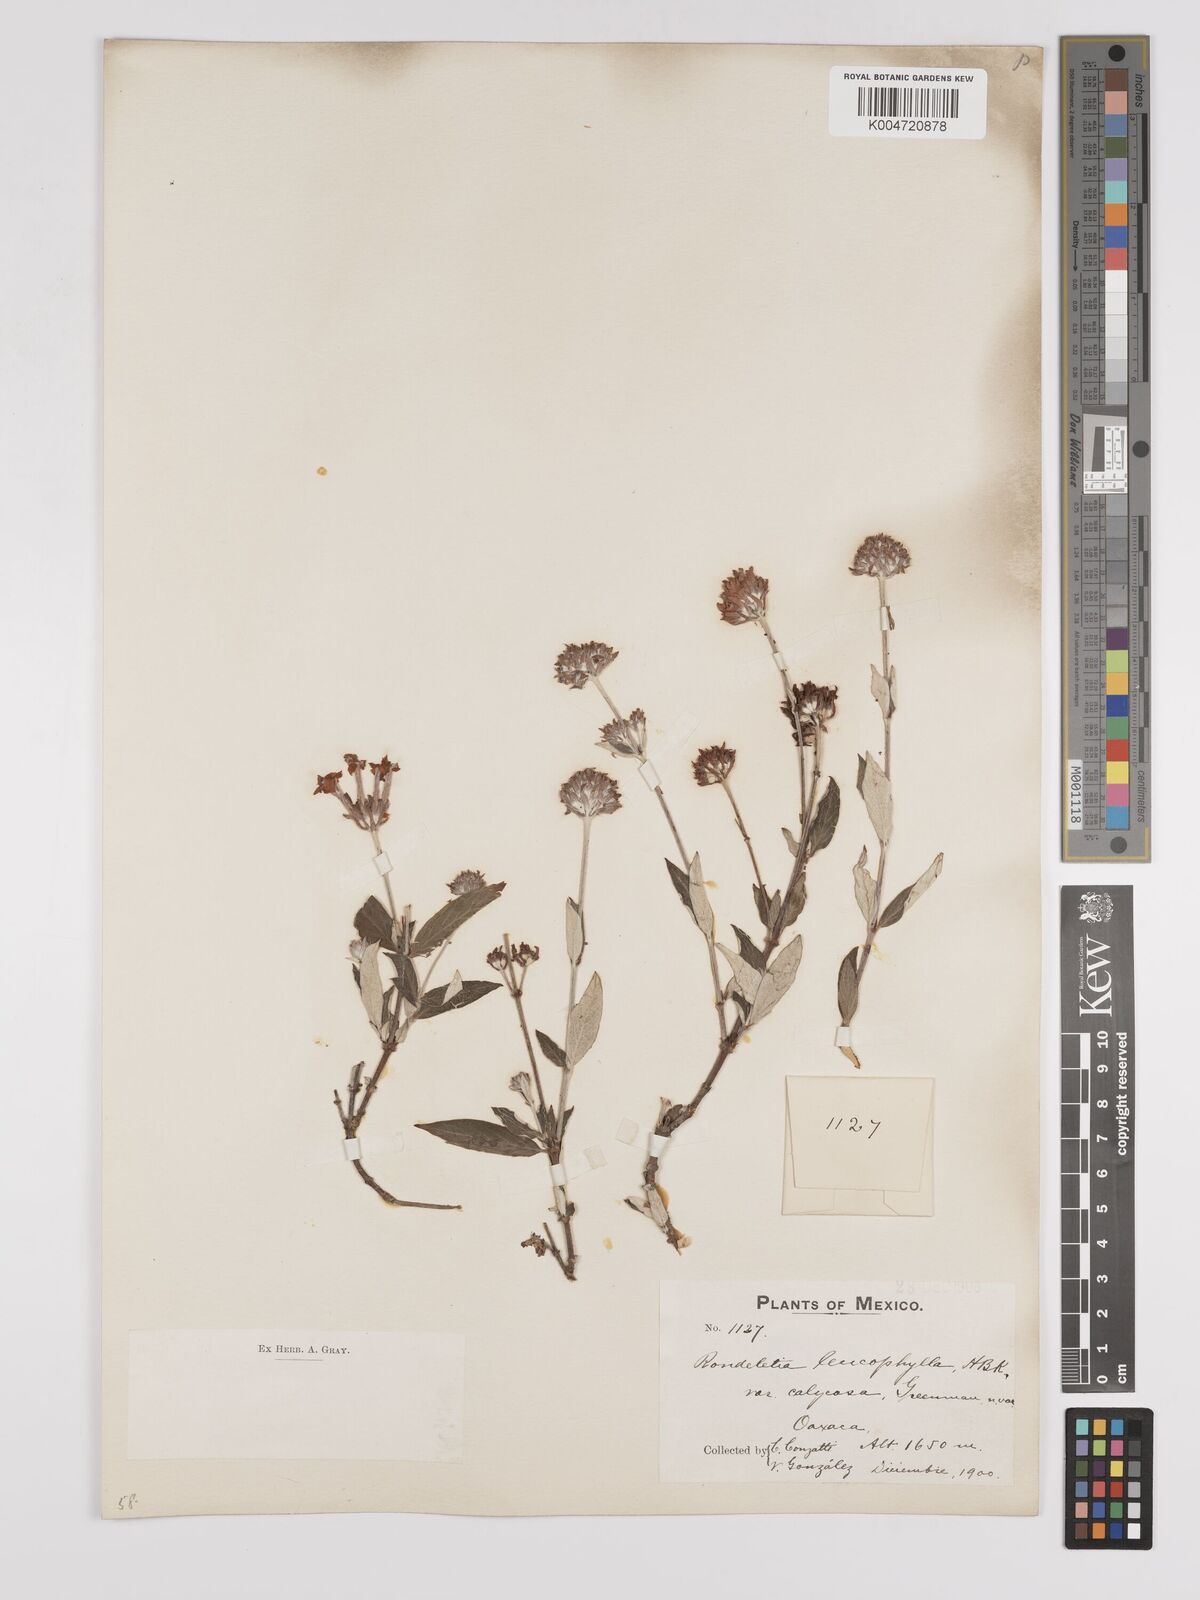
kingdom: Plantae
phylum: Tracheophyta
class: Magnoliopsida
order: Gentianales
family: Rubiaceae
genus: Arachnothryx
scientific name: Arachnothryx leucophylla
